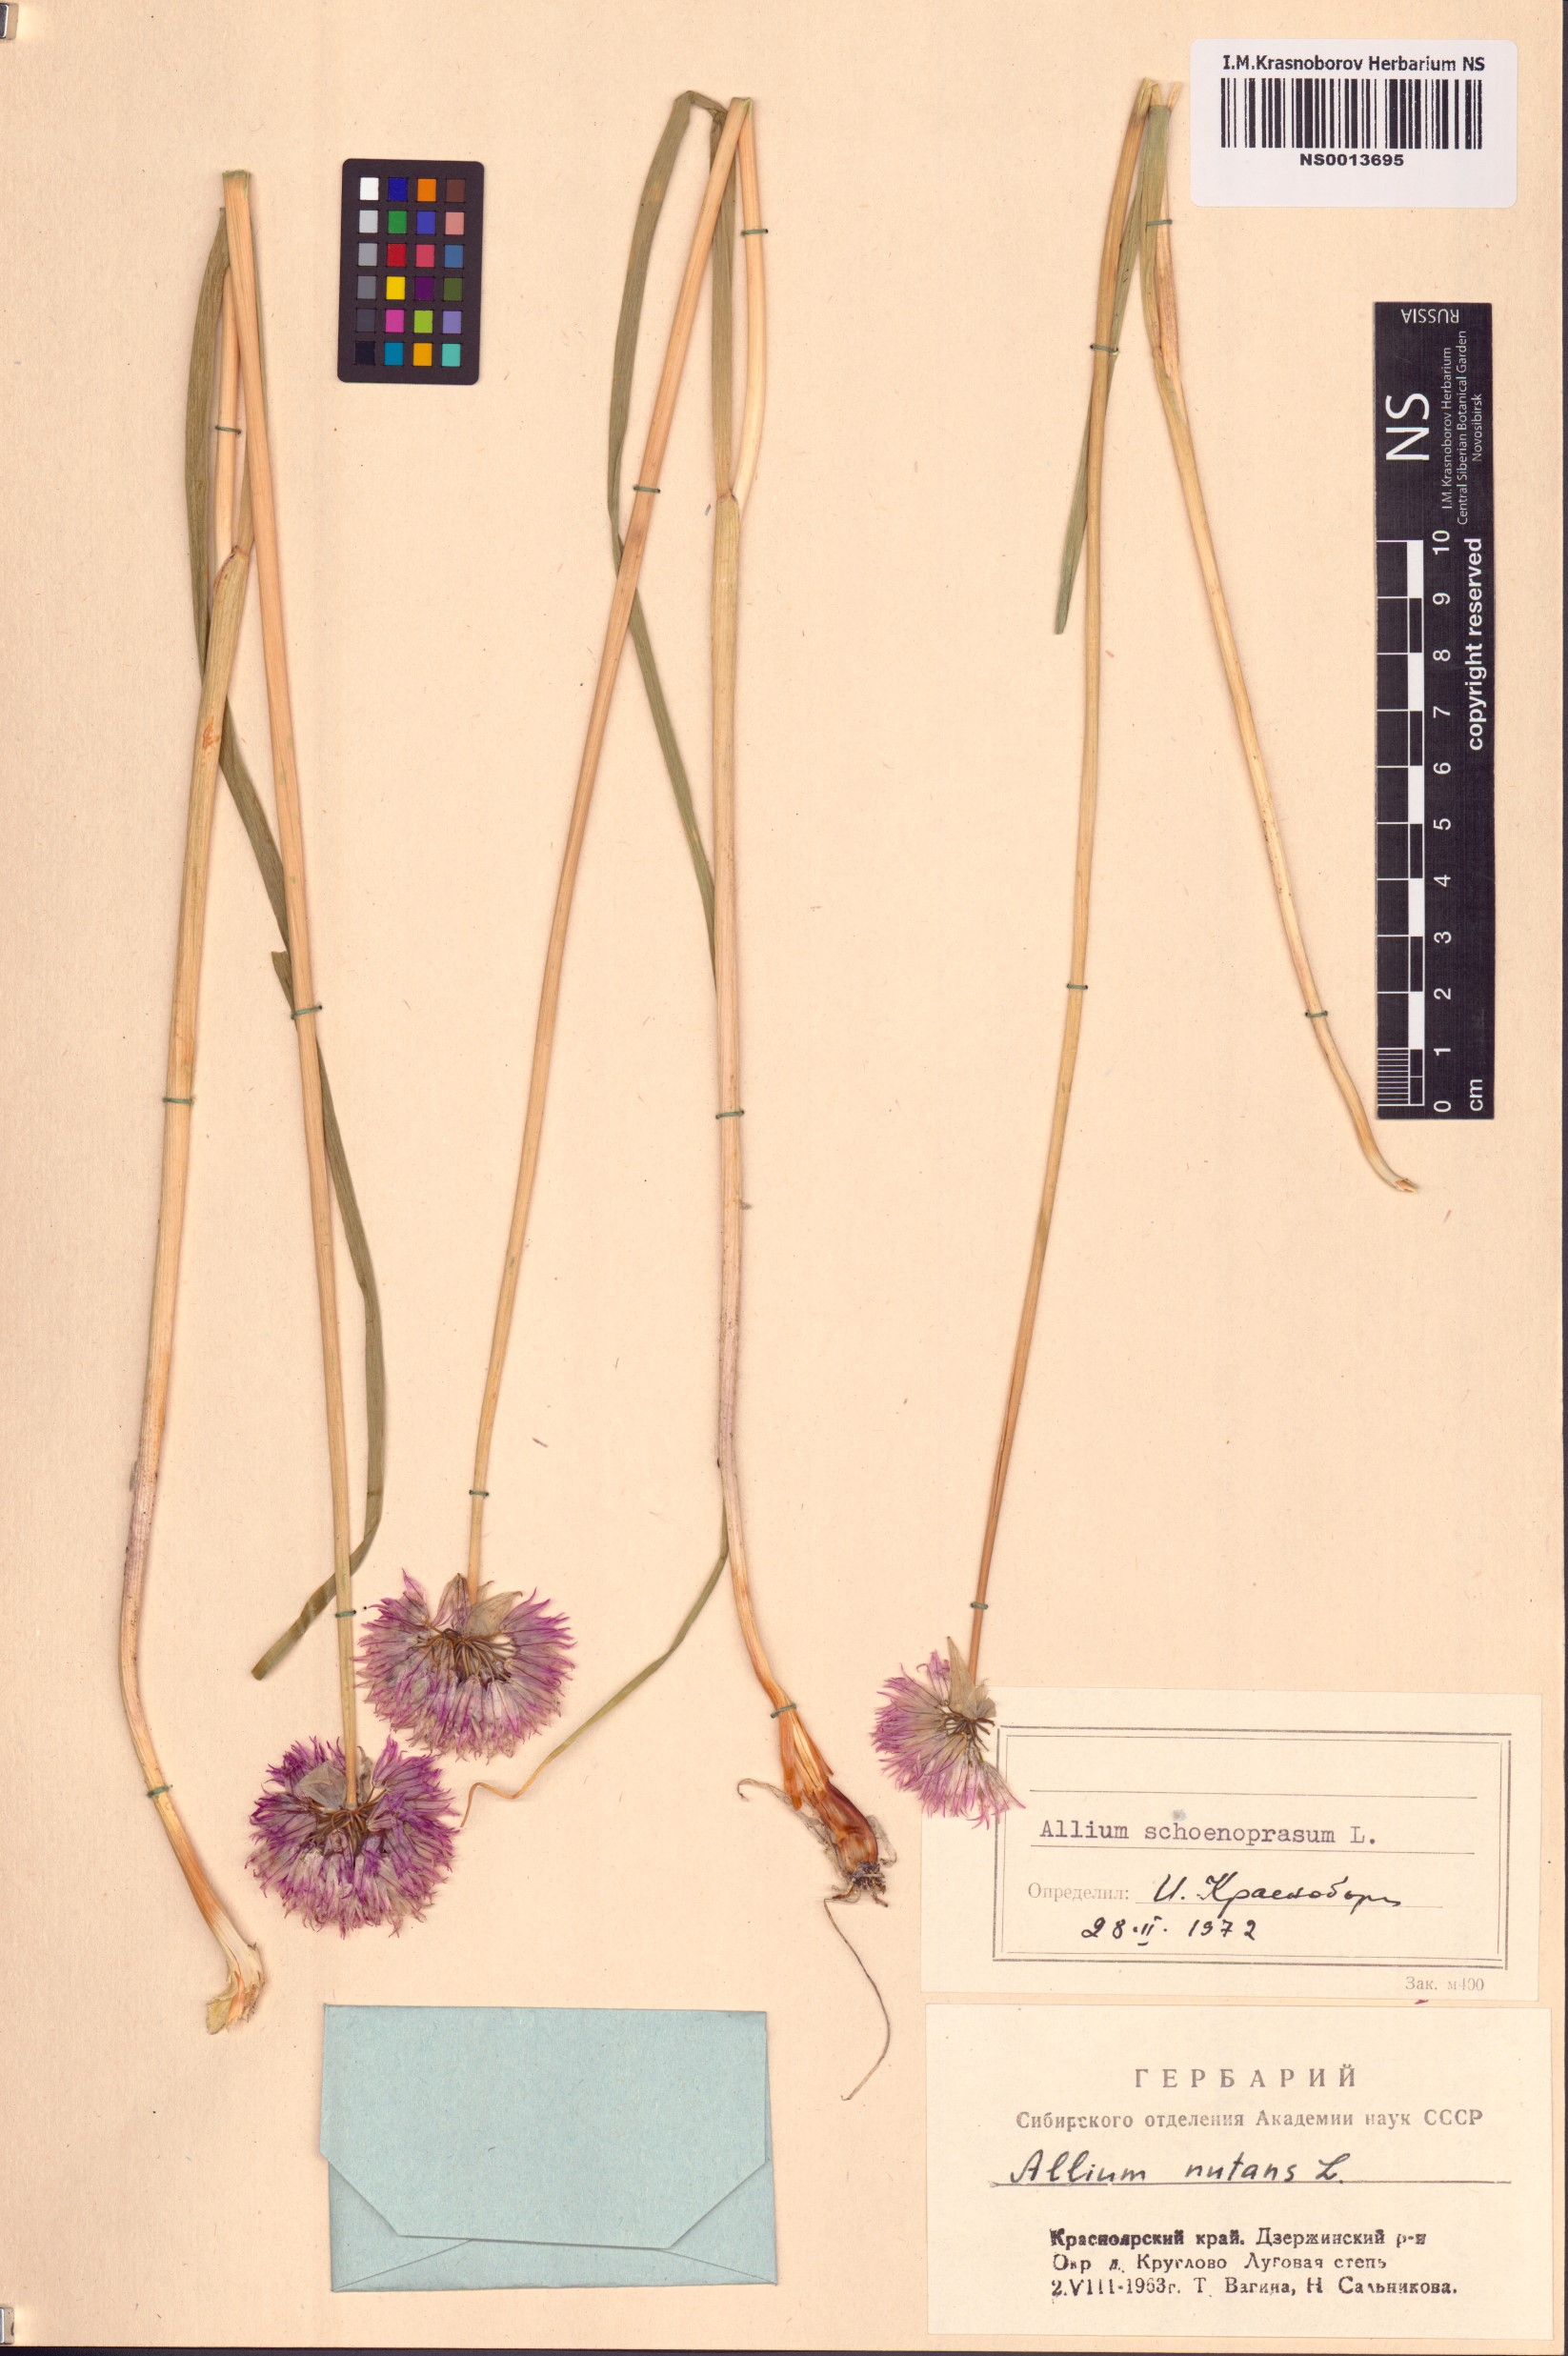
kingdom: Plantae
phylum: Tracheophyta
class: Liliopsida
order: Asparagales
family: Amaryllidaceae
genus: Allium
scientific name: Allium schoenoprasum
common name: Chives
